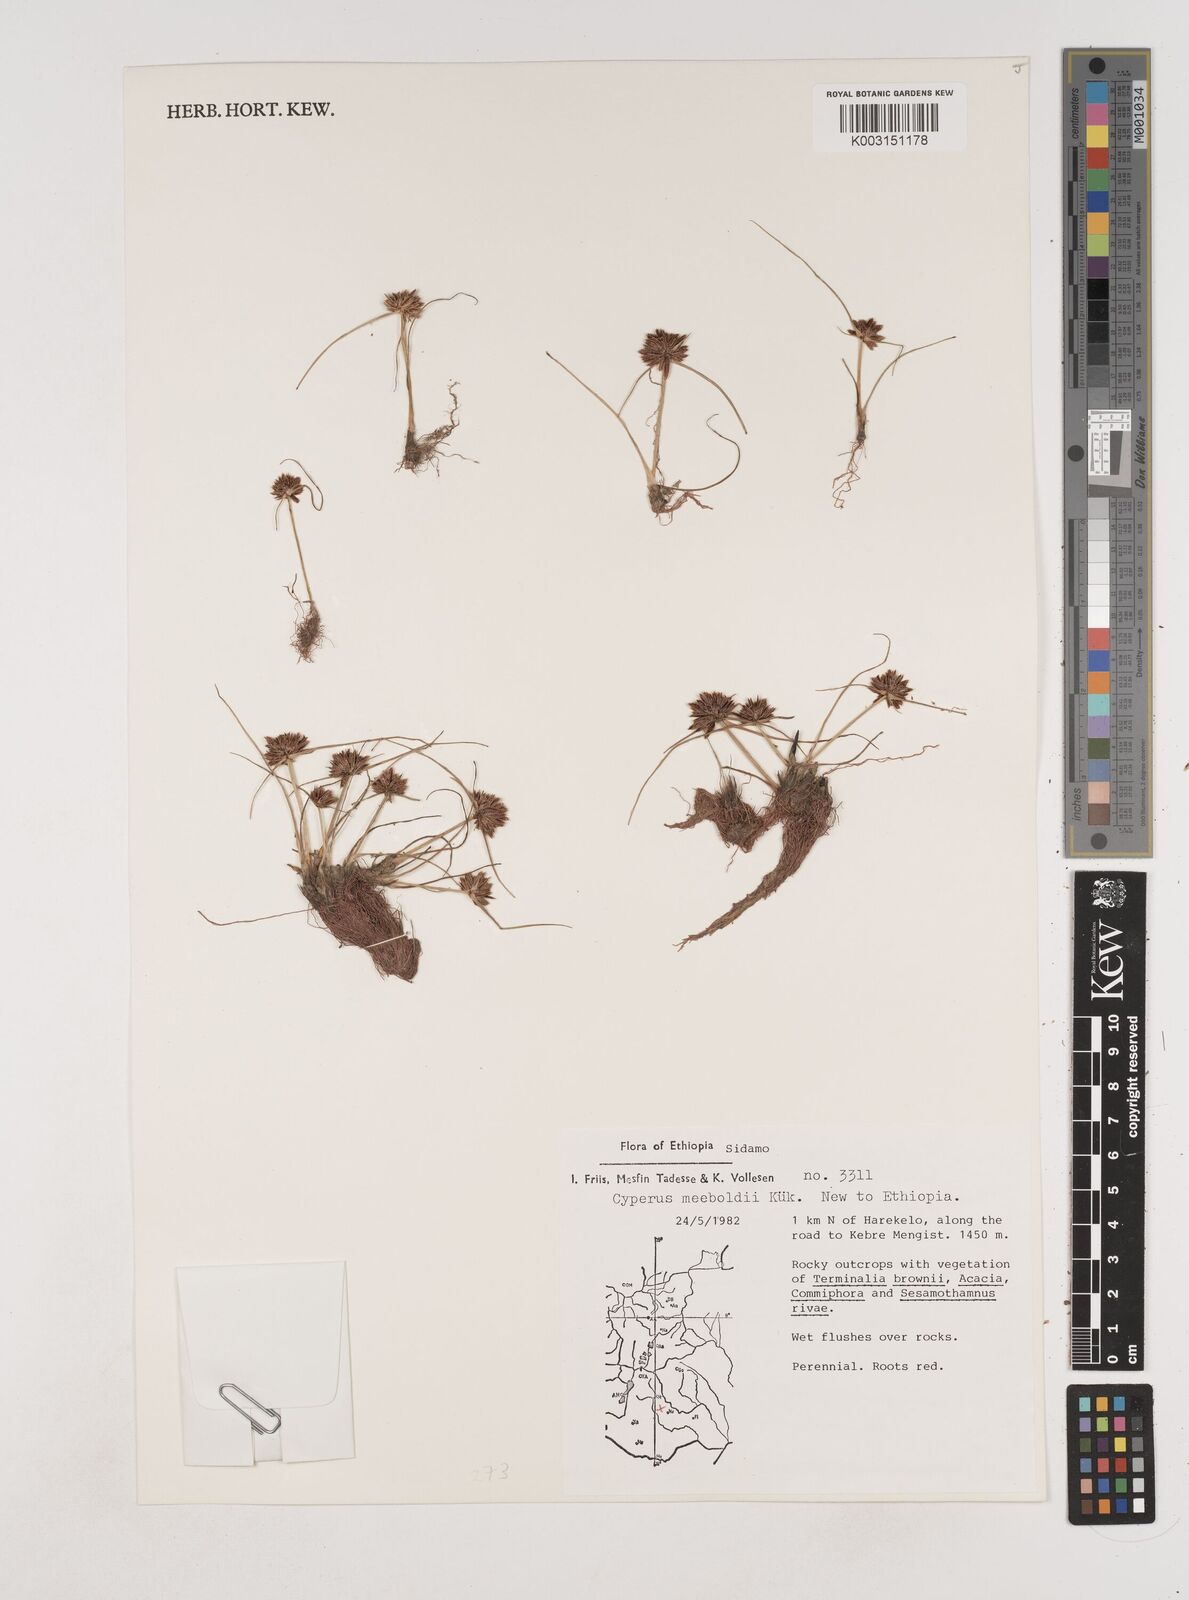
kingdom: Plantae
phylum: Tracheophyta
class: Liliopsida
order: Poales
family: Cyperaceae
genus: Cyperus
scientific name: Cyperus meeboldii
